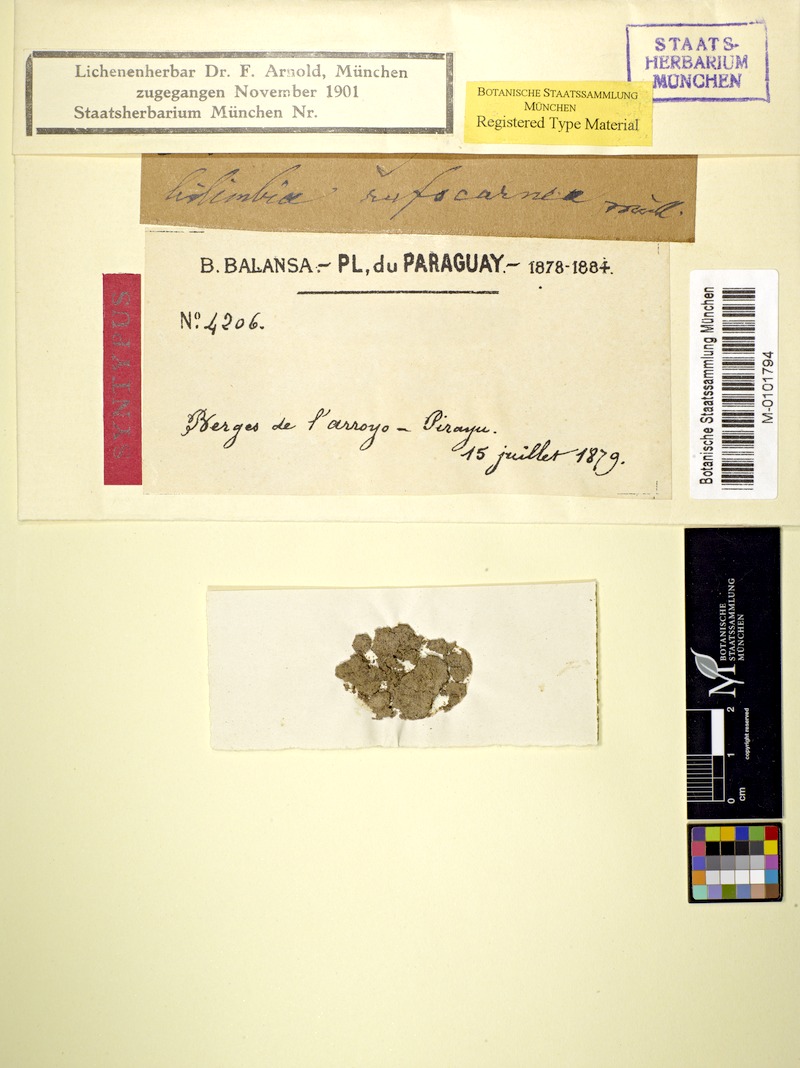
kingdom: Fungi
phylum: Ascomycota
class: Lecanoromycetes
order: Lecanorales
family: Ramalinaceae
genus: Bacidia
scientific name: Bacidia
